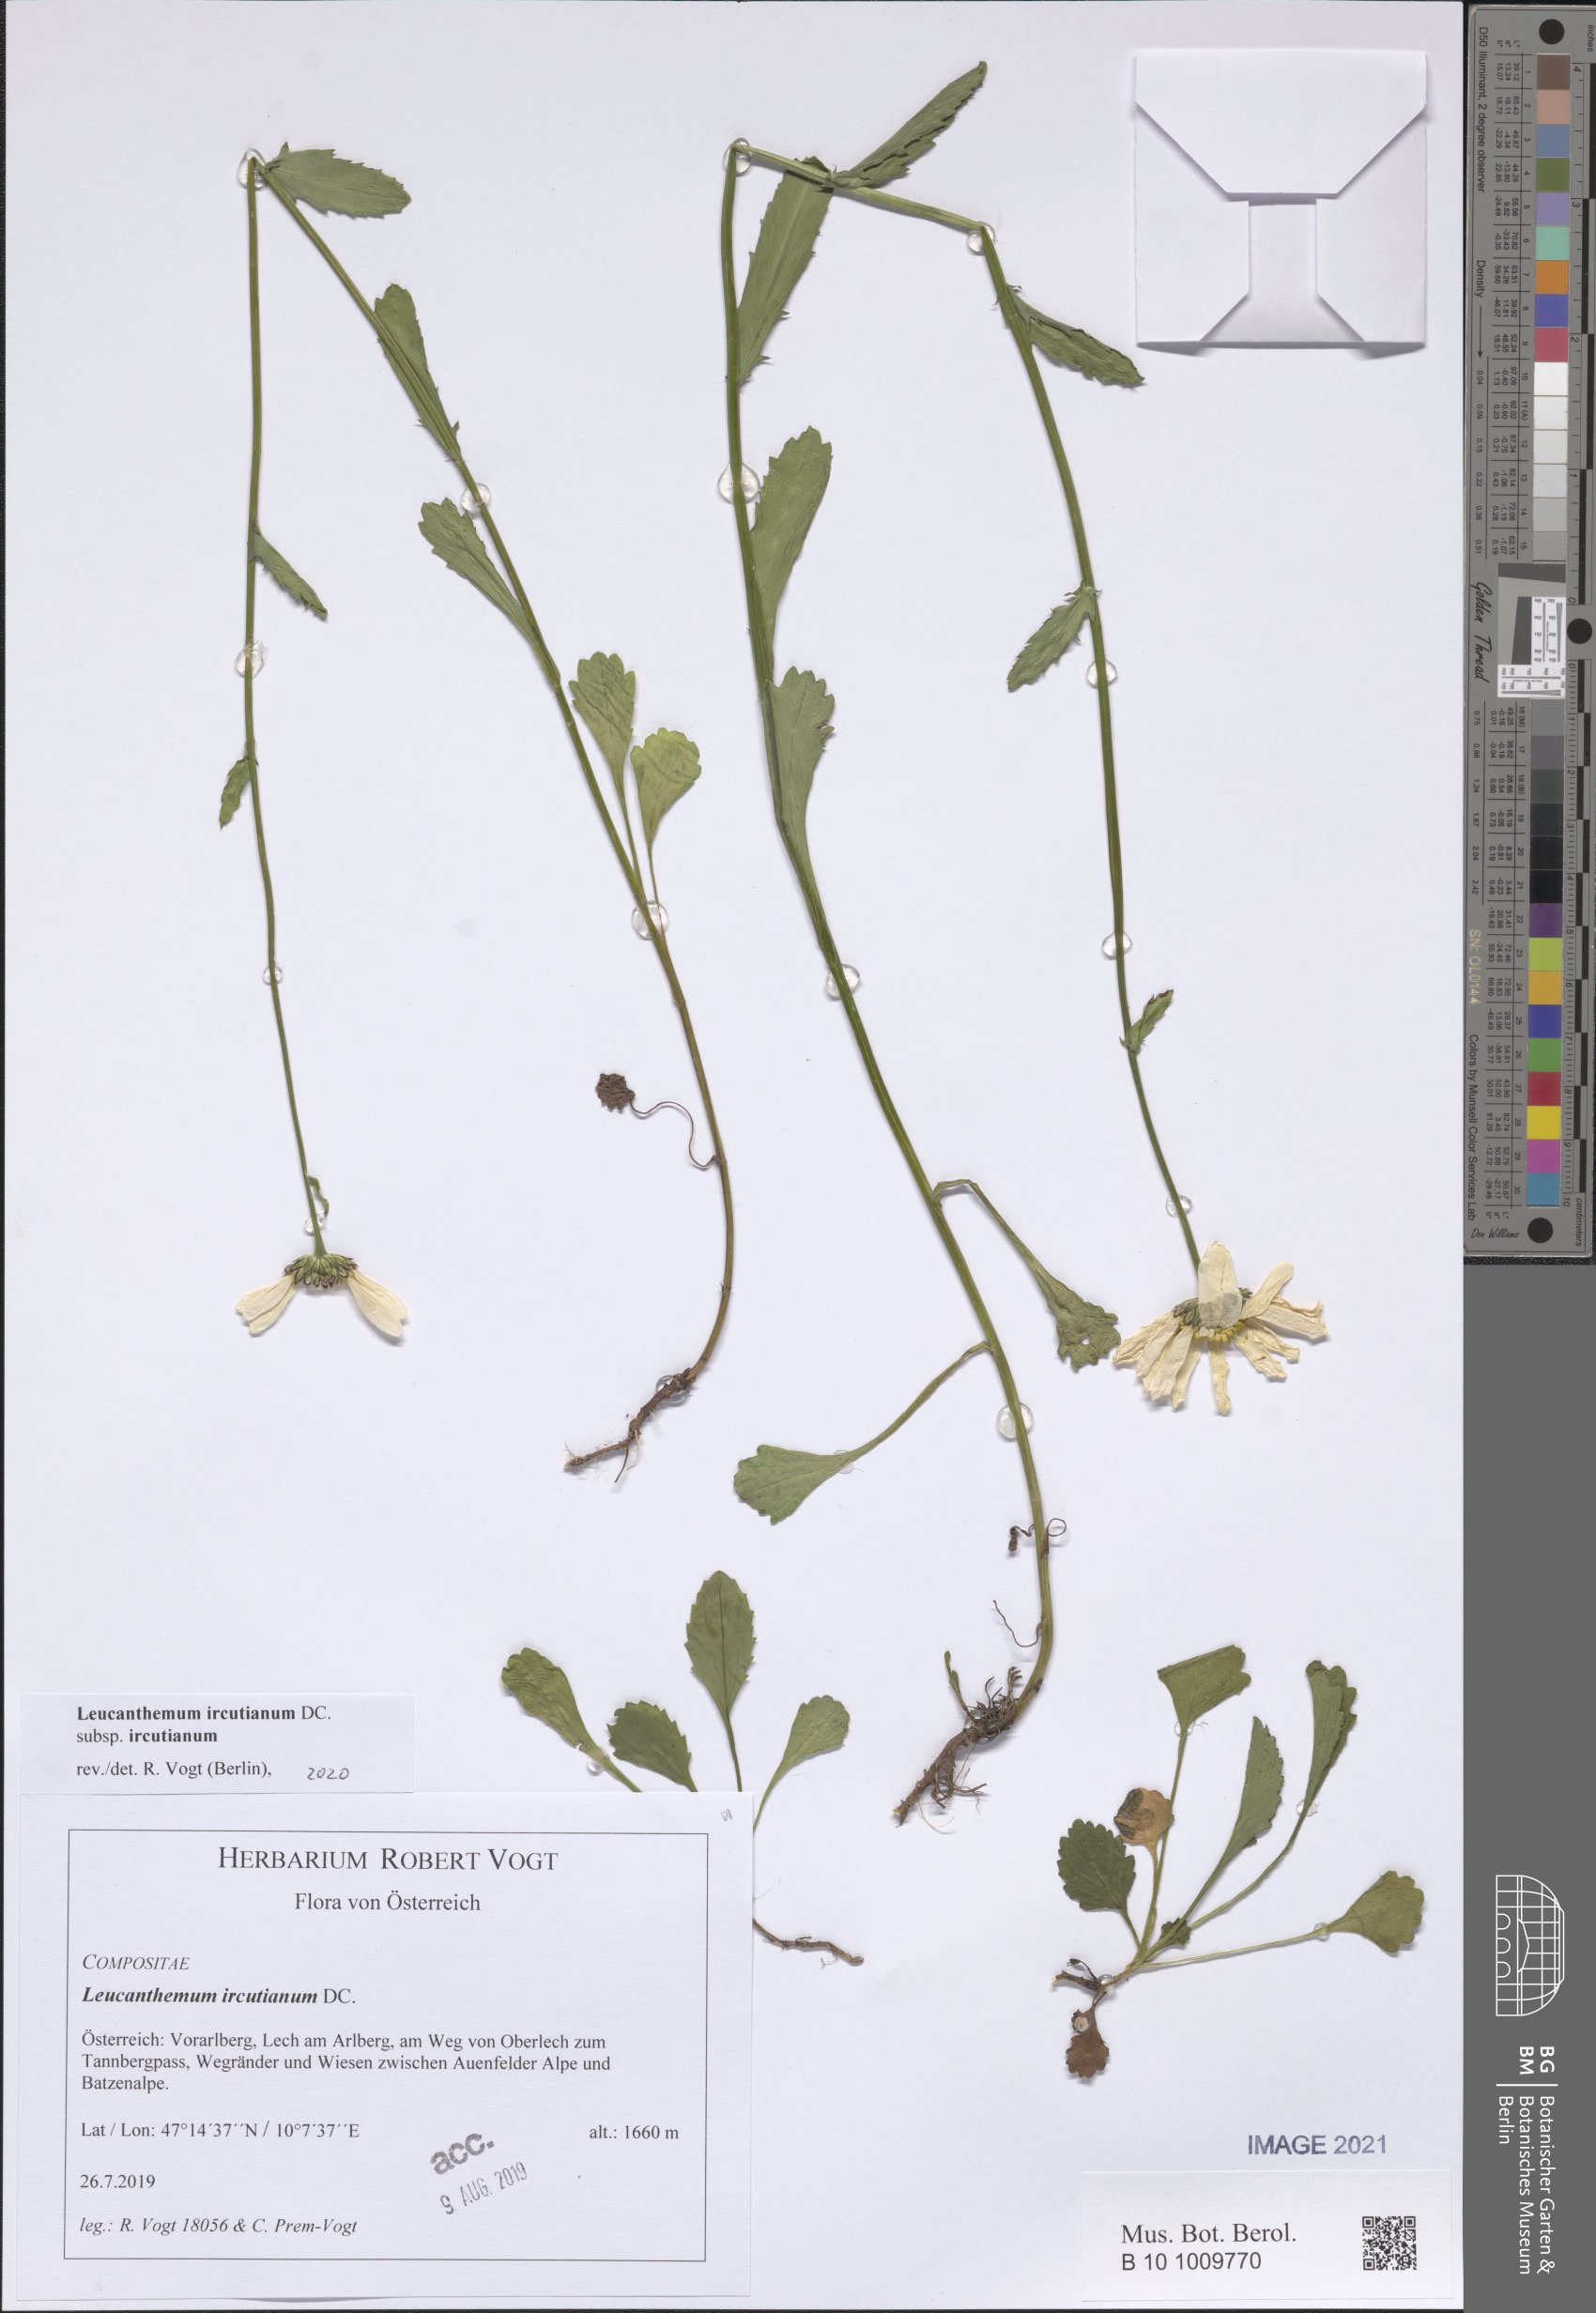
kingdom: Plantae
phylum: Tracheophyta
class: Magnoliopsida
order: Asterales
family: Asteraceae
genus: Leucanthemum
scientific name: Leucanthemum ircutianum
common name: Daisy
